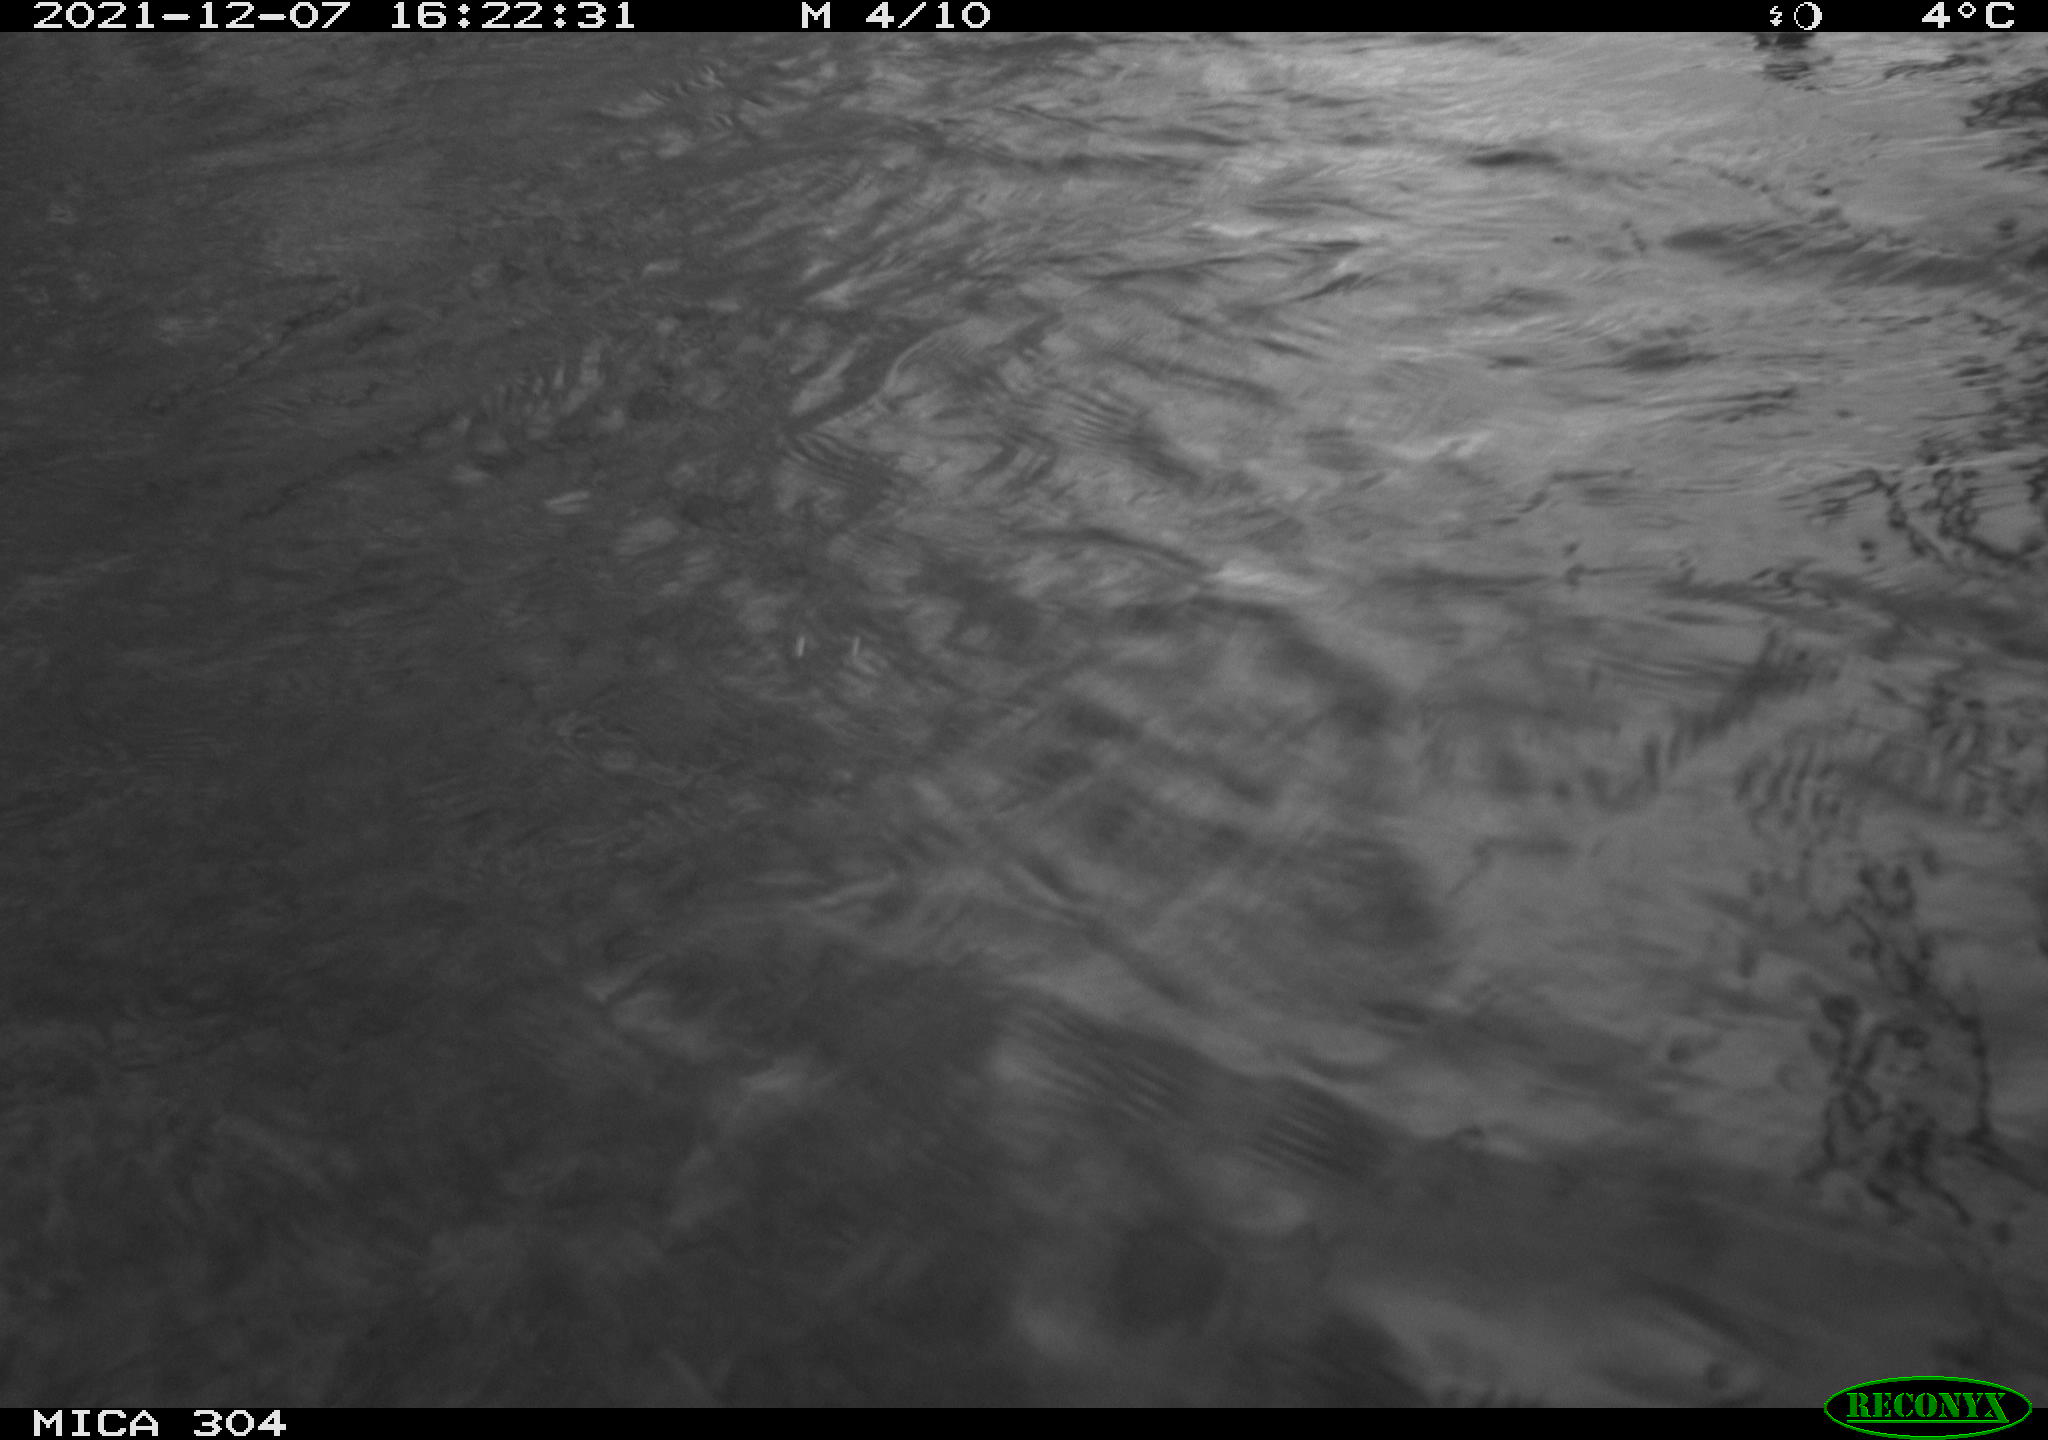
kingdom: Animalia
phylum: Chordata
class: Aves
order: Gruiformes
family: Rallidae
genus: Fulica
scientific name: Fulica atra
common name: Eurasian coot
